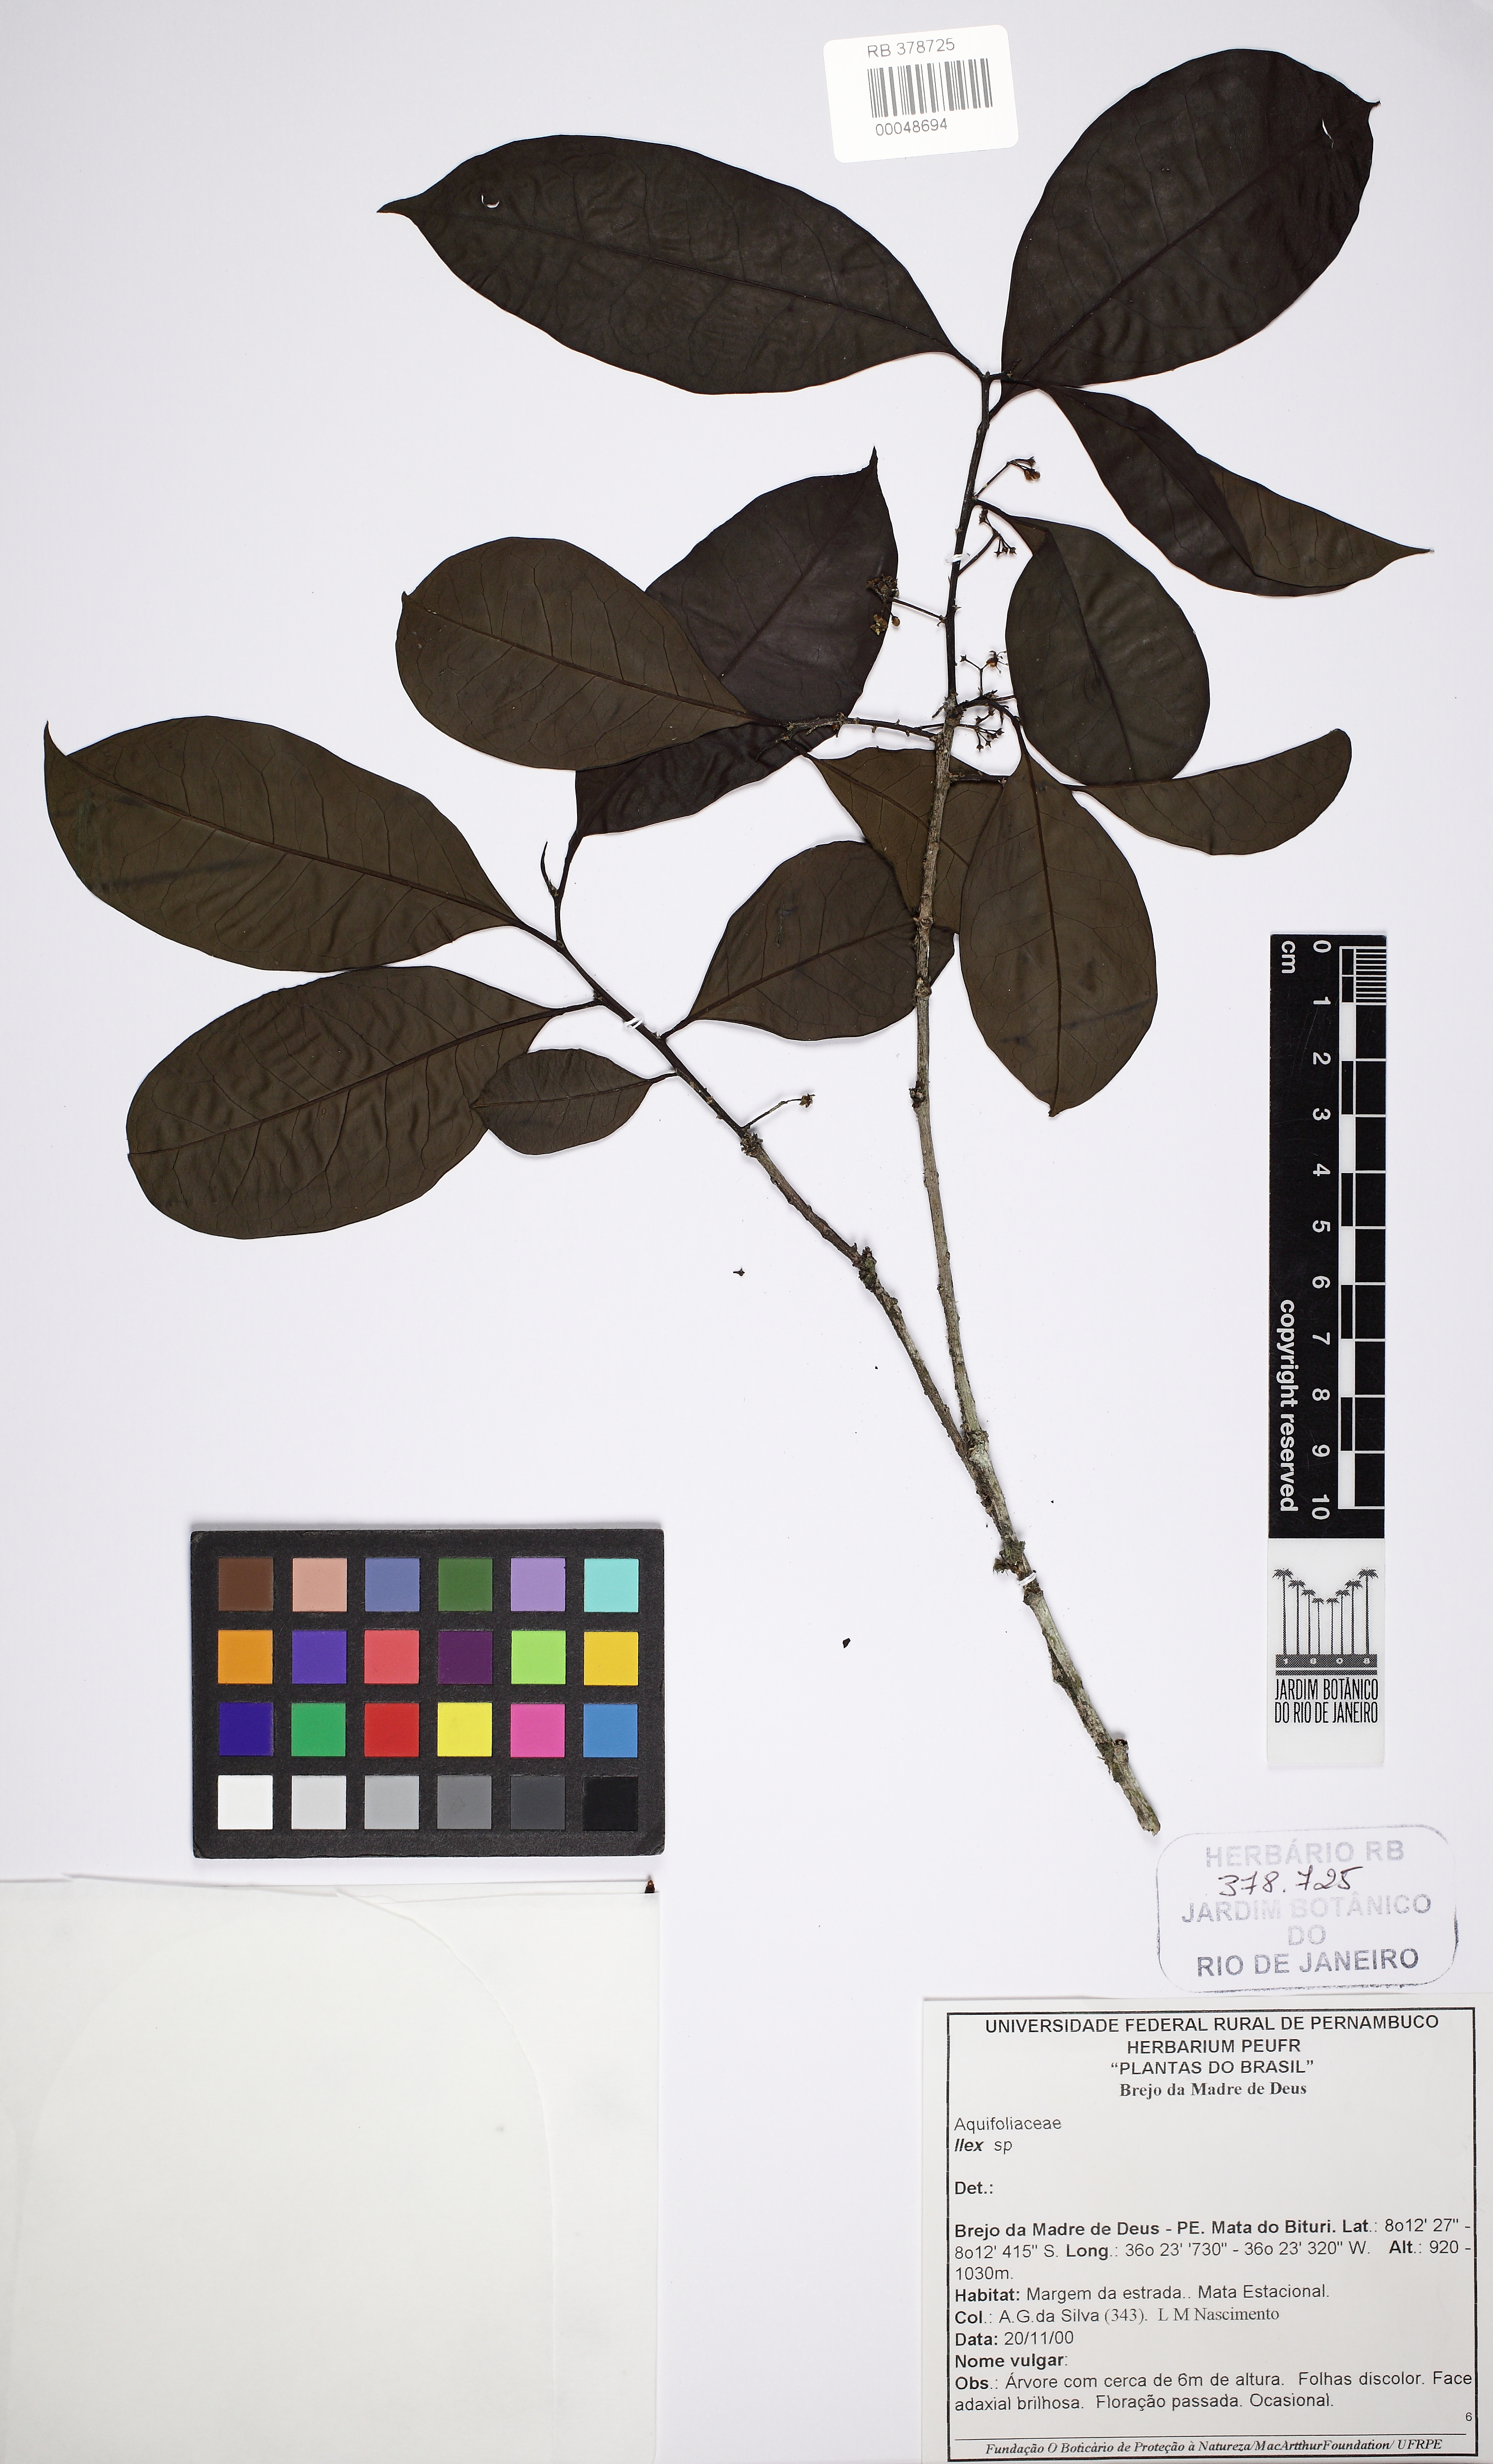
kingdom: Plantae
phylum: Tracheophyta
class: Magnoliopsida
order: Aquifoliales
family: Aquifoliaceae
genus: Ilex
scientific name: Ilex
